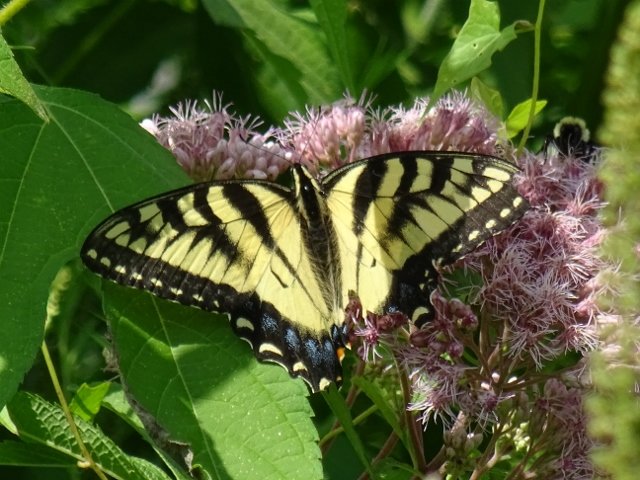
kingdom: Animalia
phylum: Arthropoda
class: Insecta
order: Lepidoptera
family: Papilionidae
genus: Pterourus
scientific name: Pterourus glaucus
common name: Eastern Tiger Swallowtail
